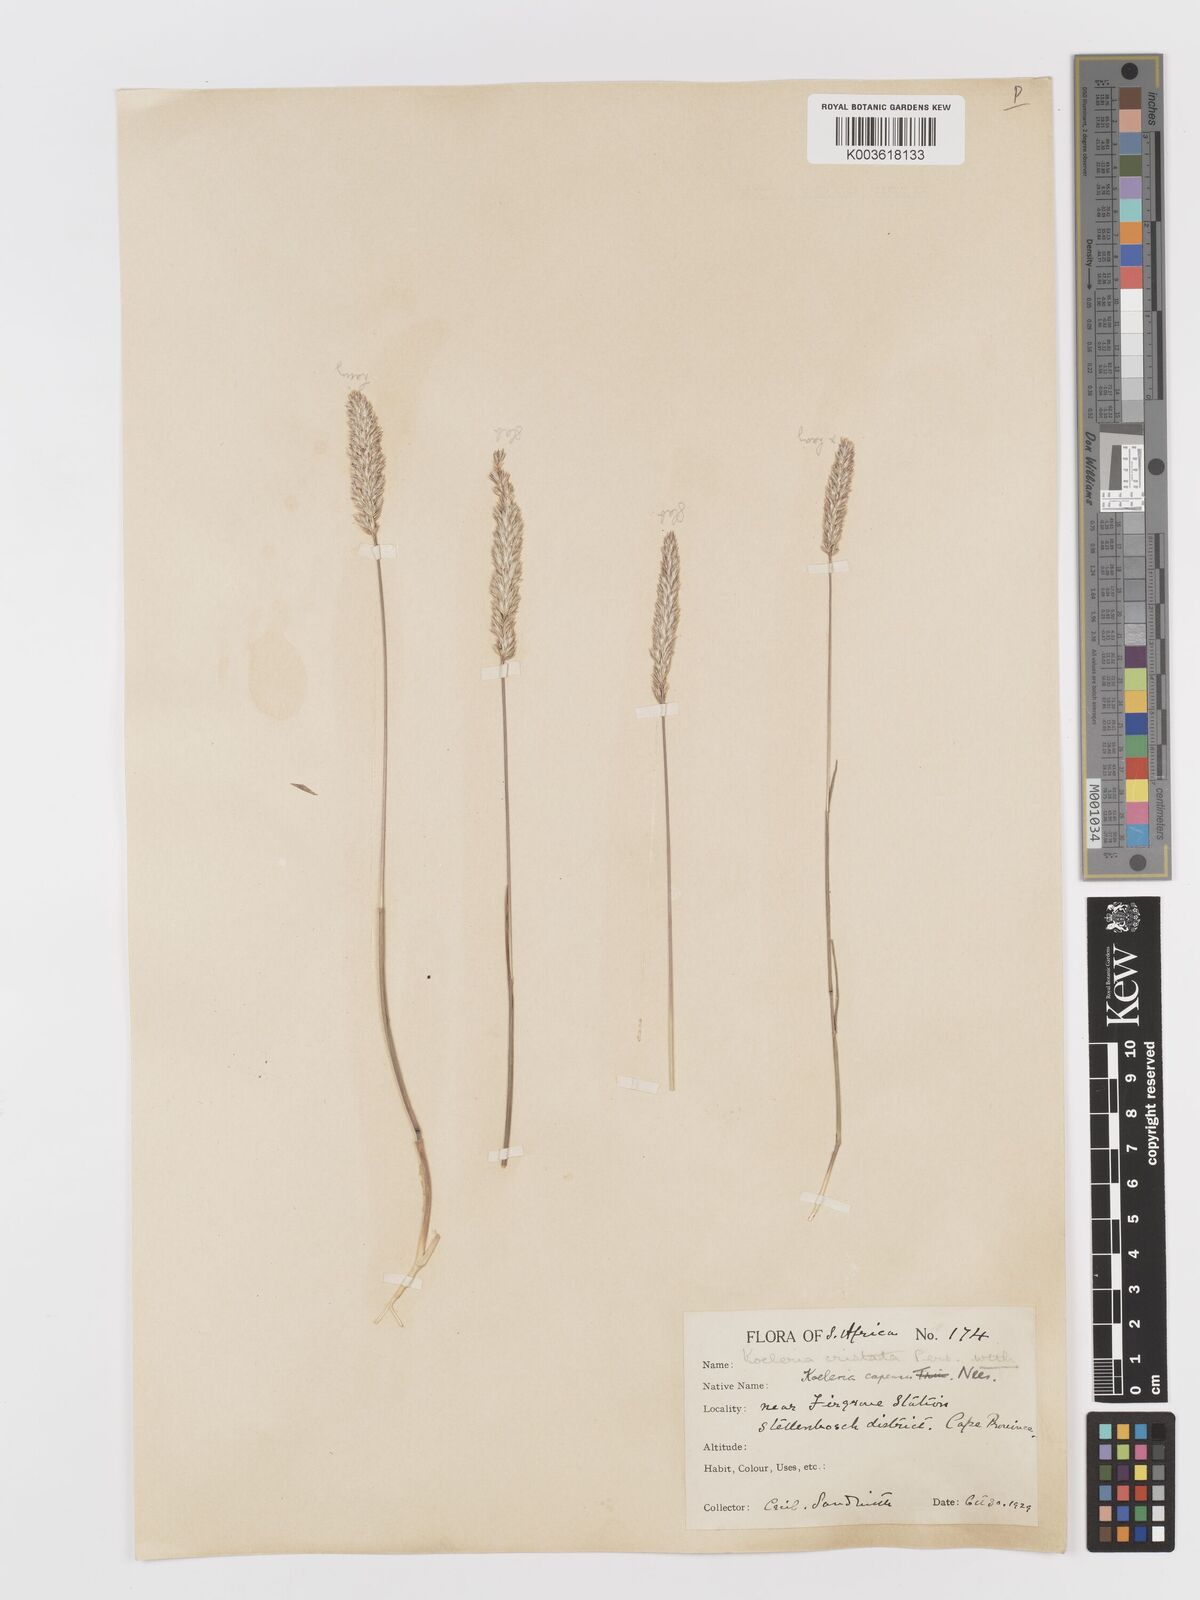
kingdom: Plantae
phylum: Tracheophyta
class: Liliopsida
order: Poales
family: Poaceae
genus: Koeleria
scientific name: Koeleria capensis
